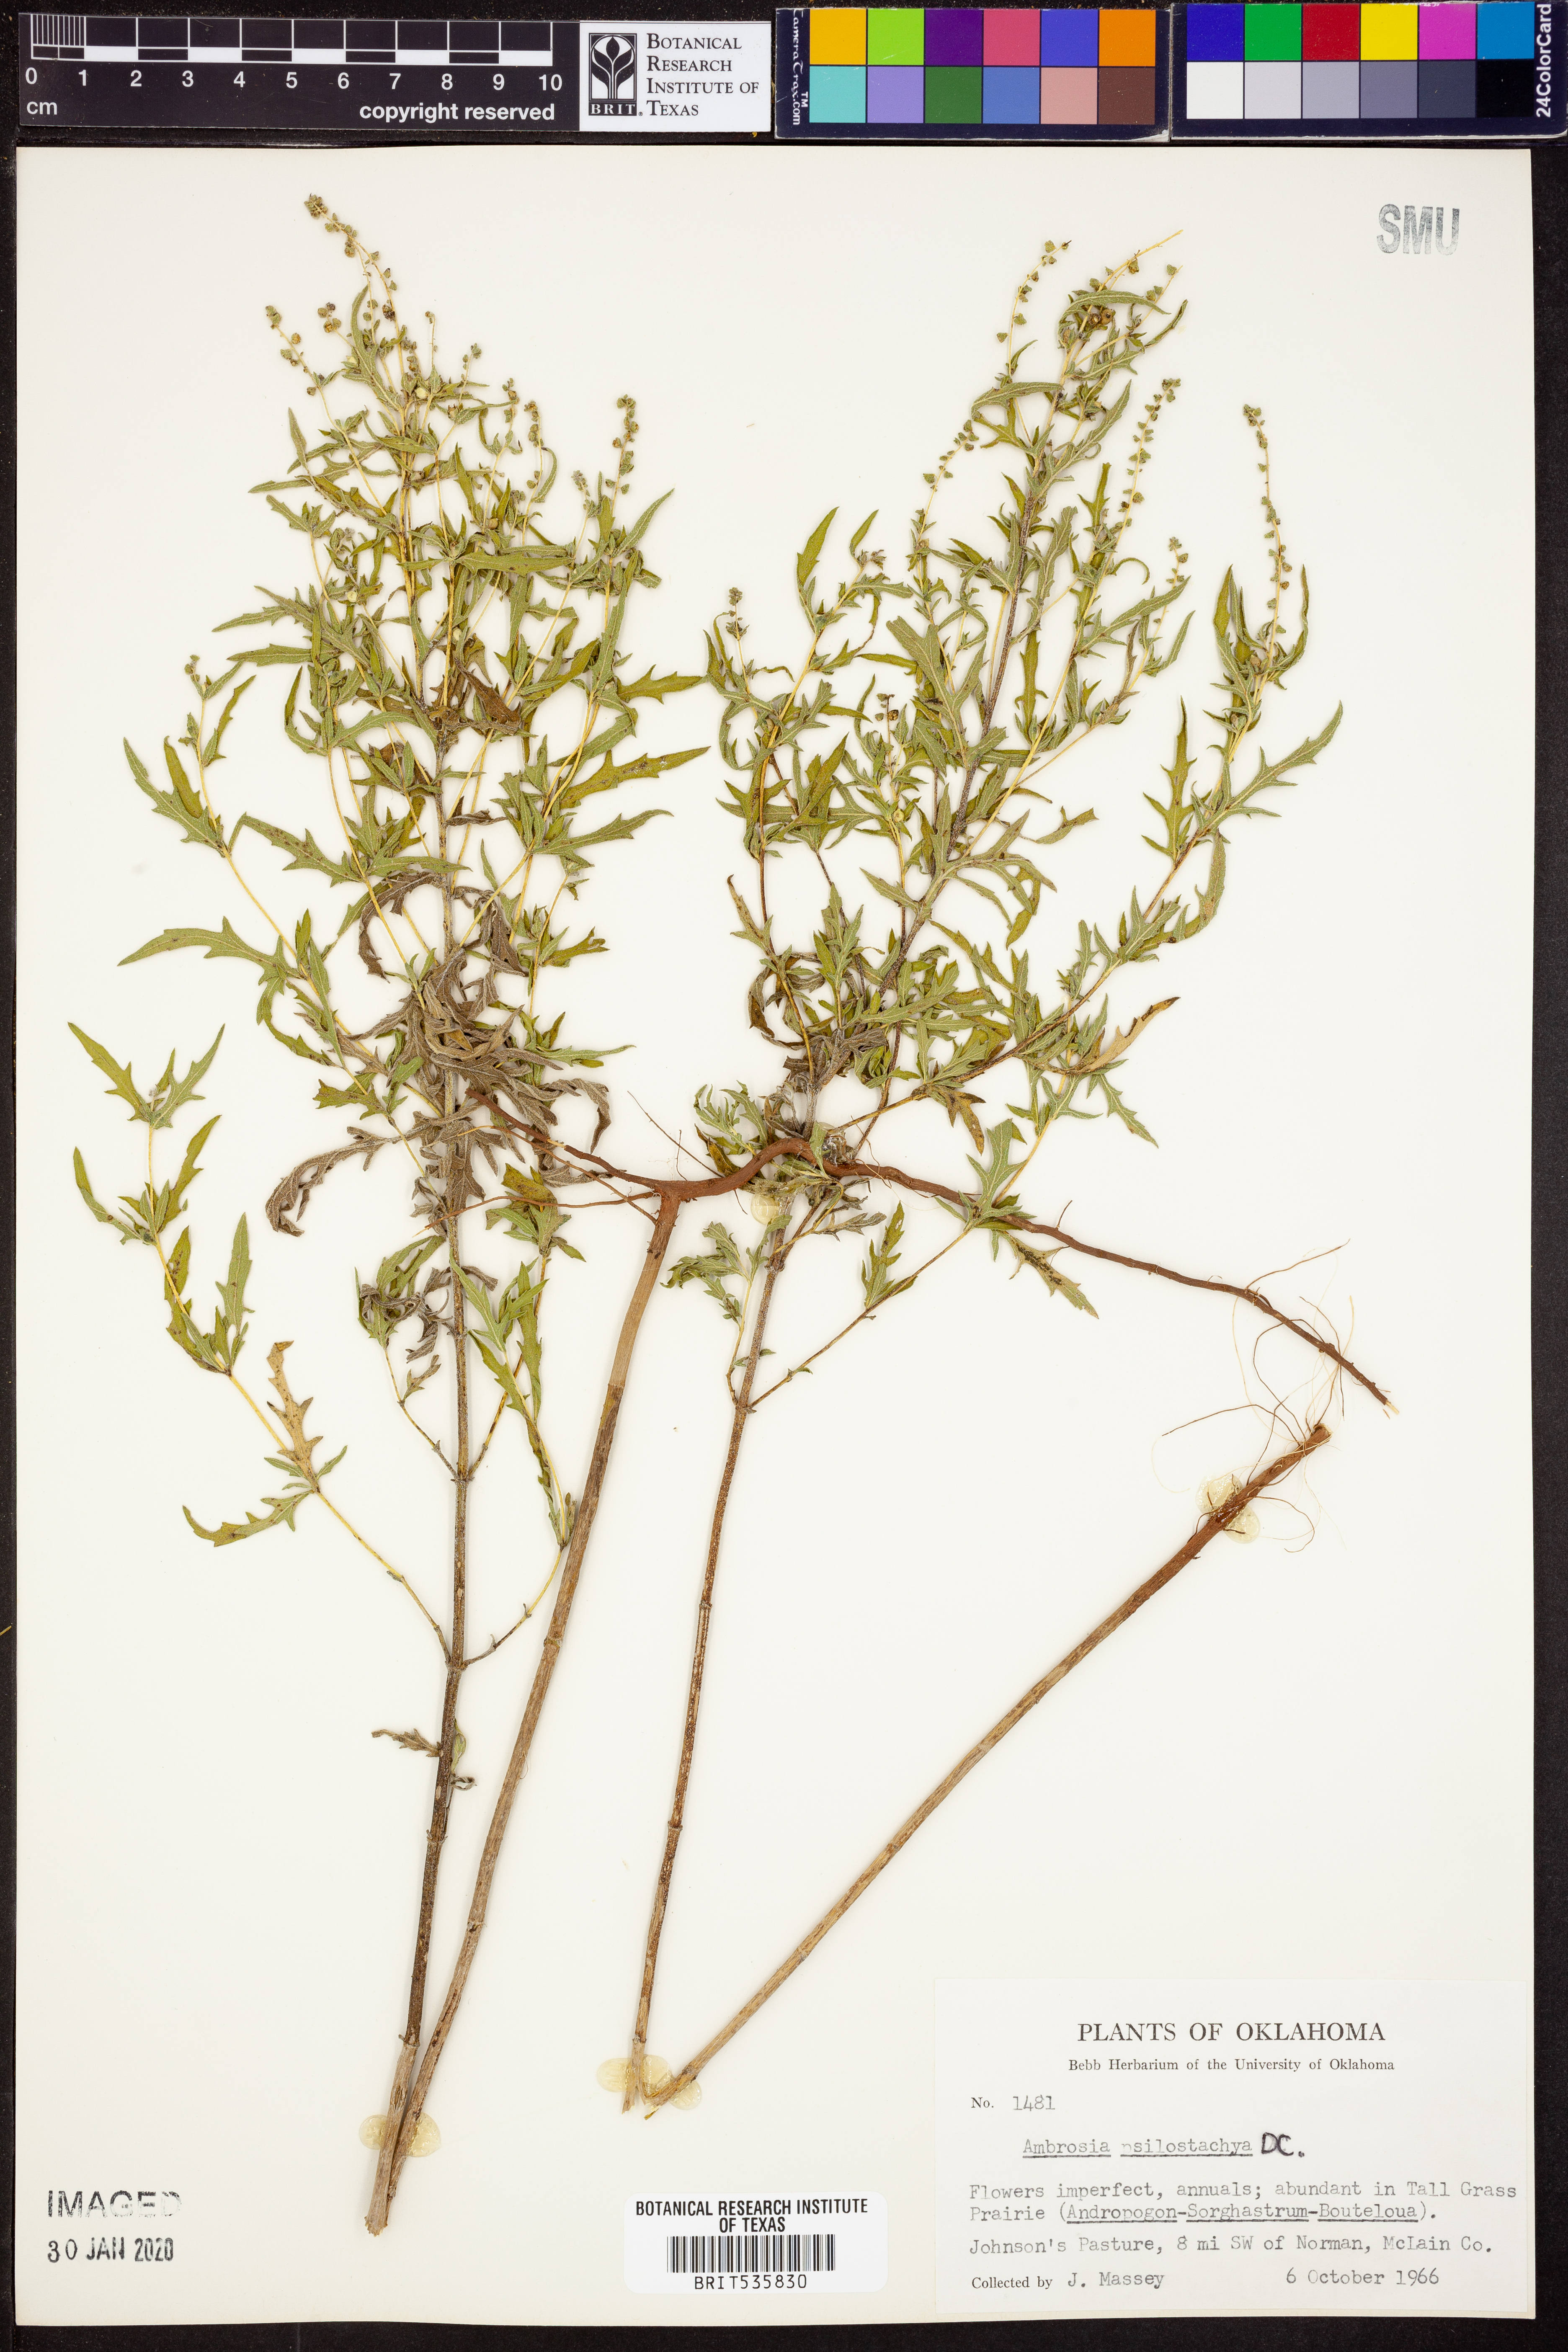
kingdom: Plantae
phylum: Tracheophyta
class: Magnoliopsida
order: Asterales
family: Asteraceae
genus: Ambrosia
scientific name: Ambrosia psilostachya
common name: Perennial ragweed
